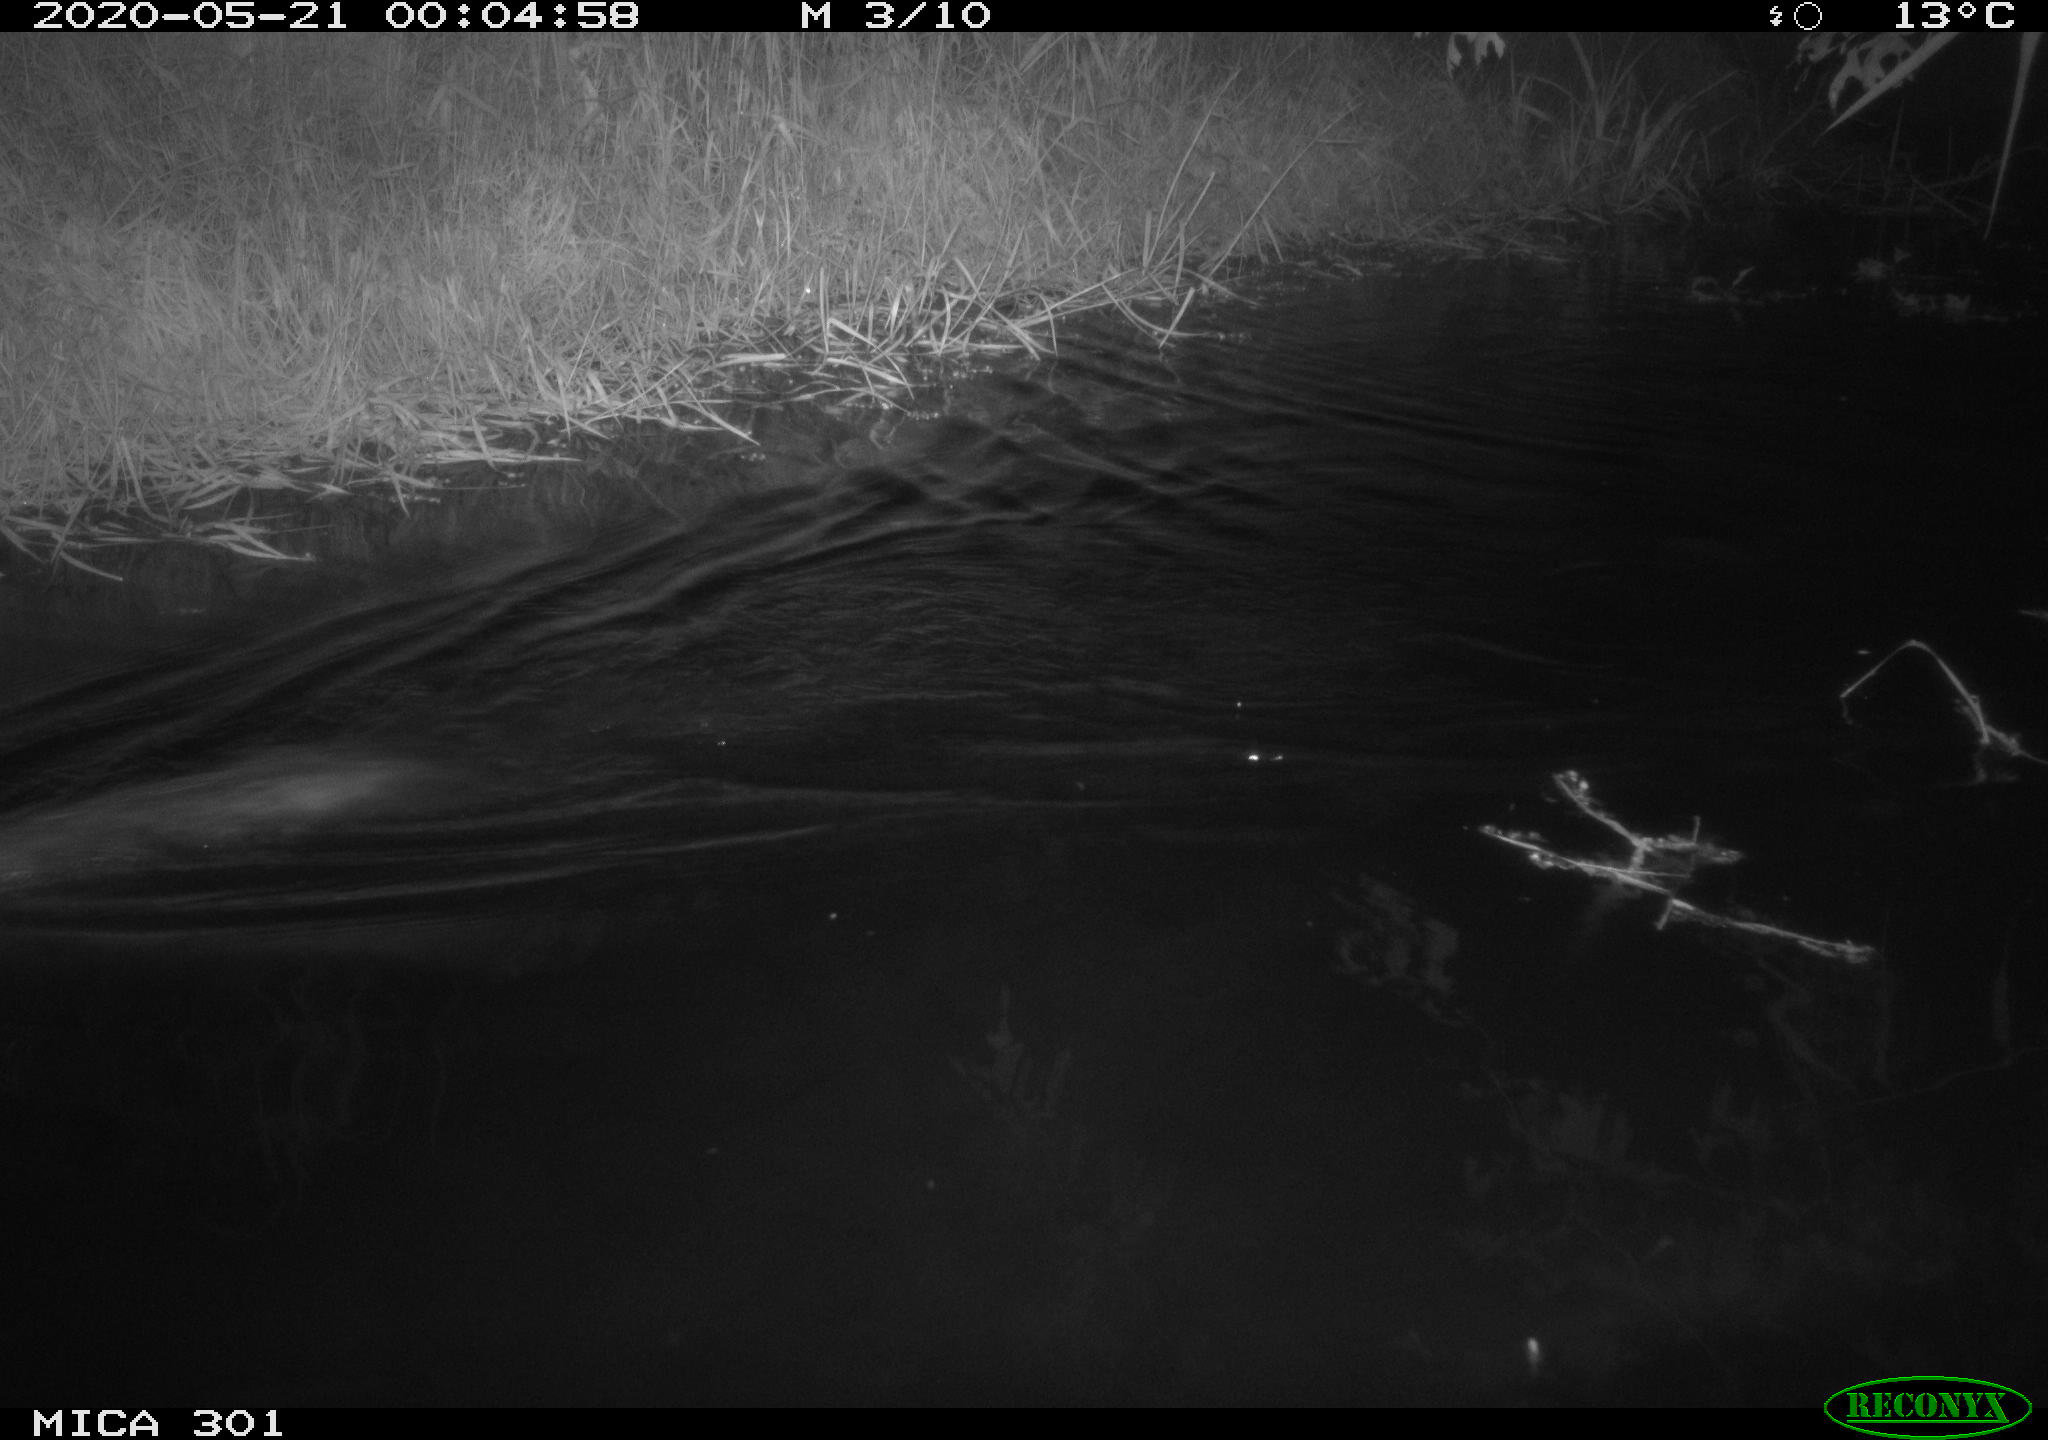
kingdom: Animalia
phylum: Chordata
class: Mammalia
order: Rodentia
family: Castoridae
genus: Castor
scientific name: Castor fiber
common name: Eurasian beaver
